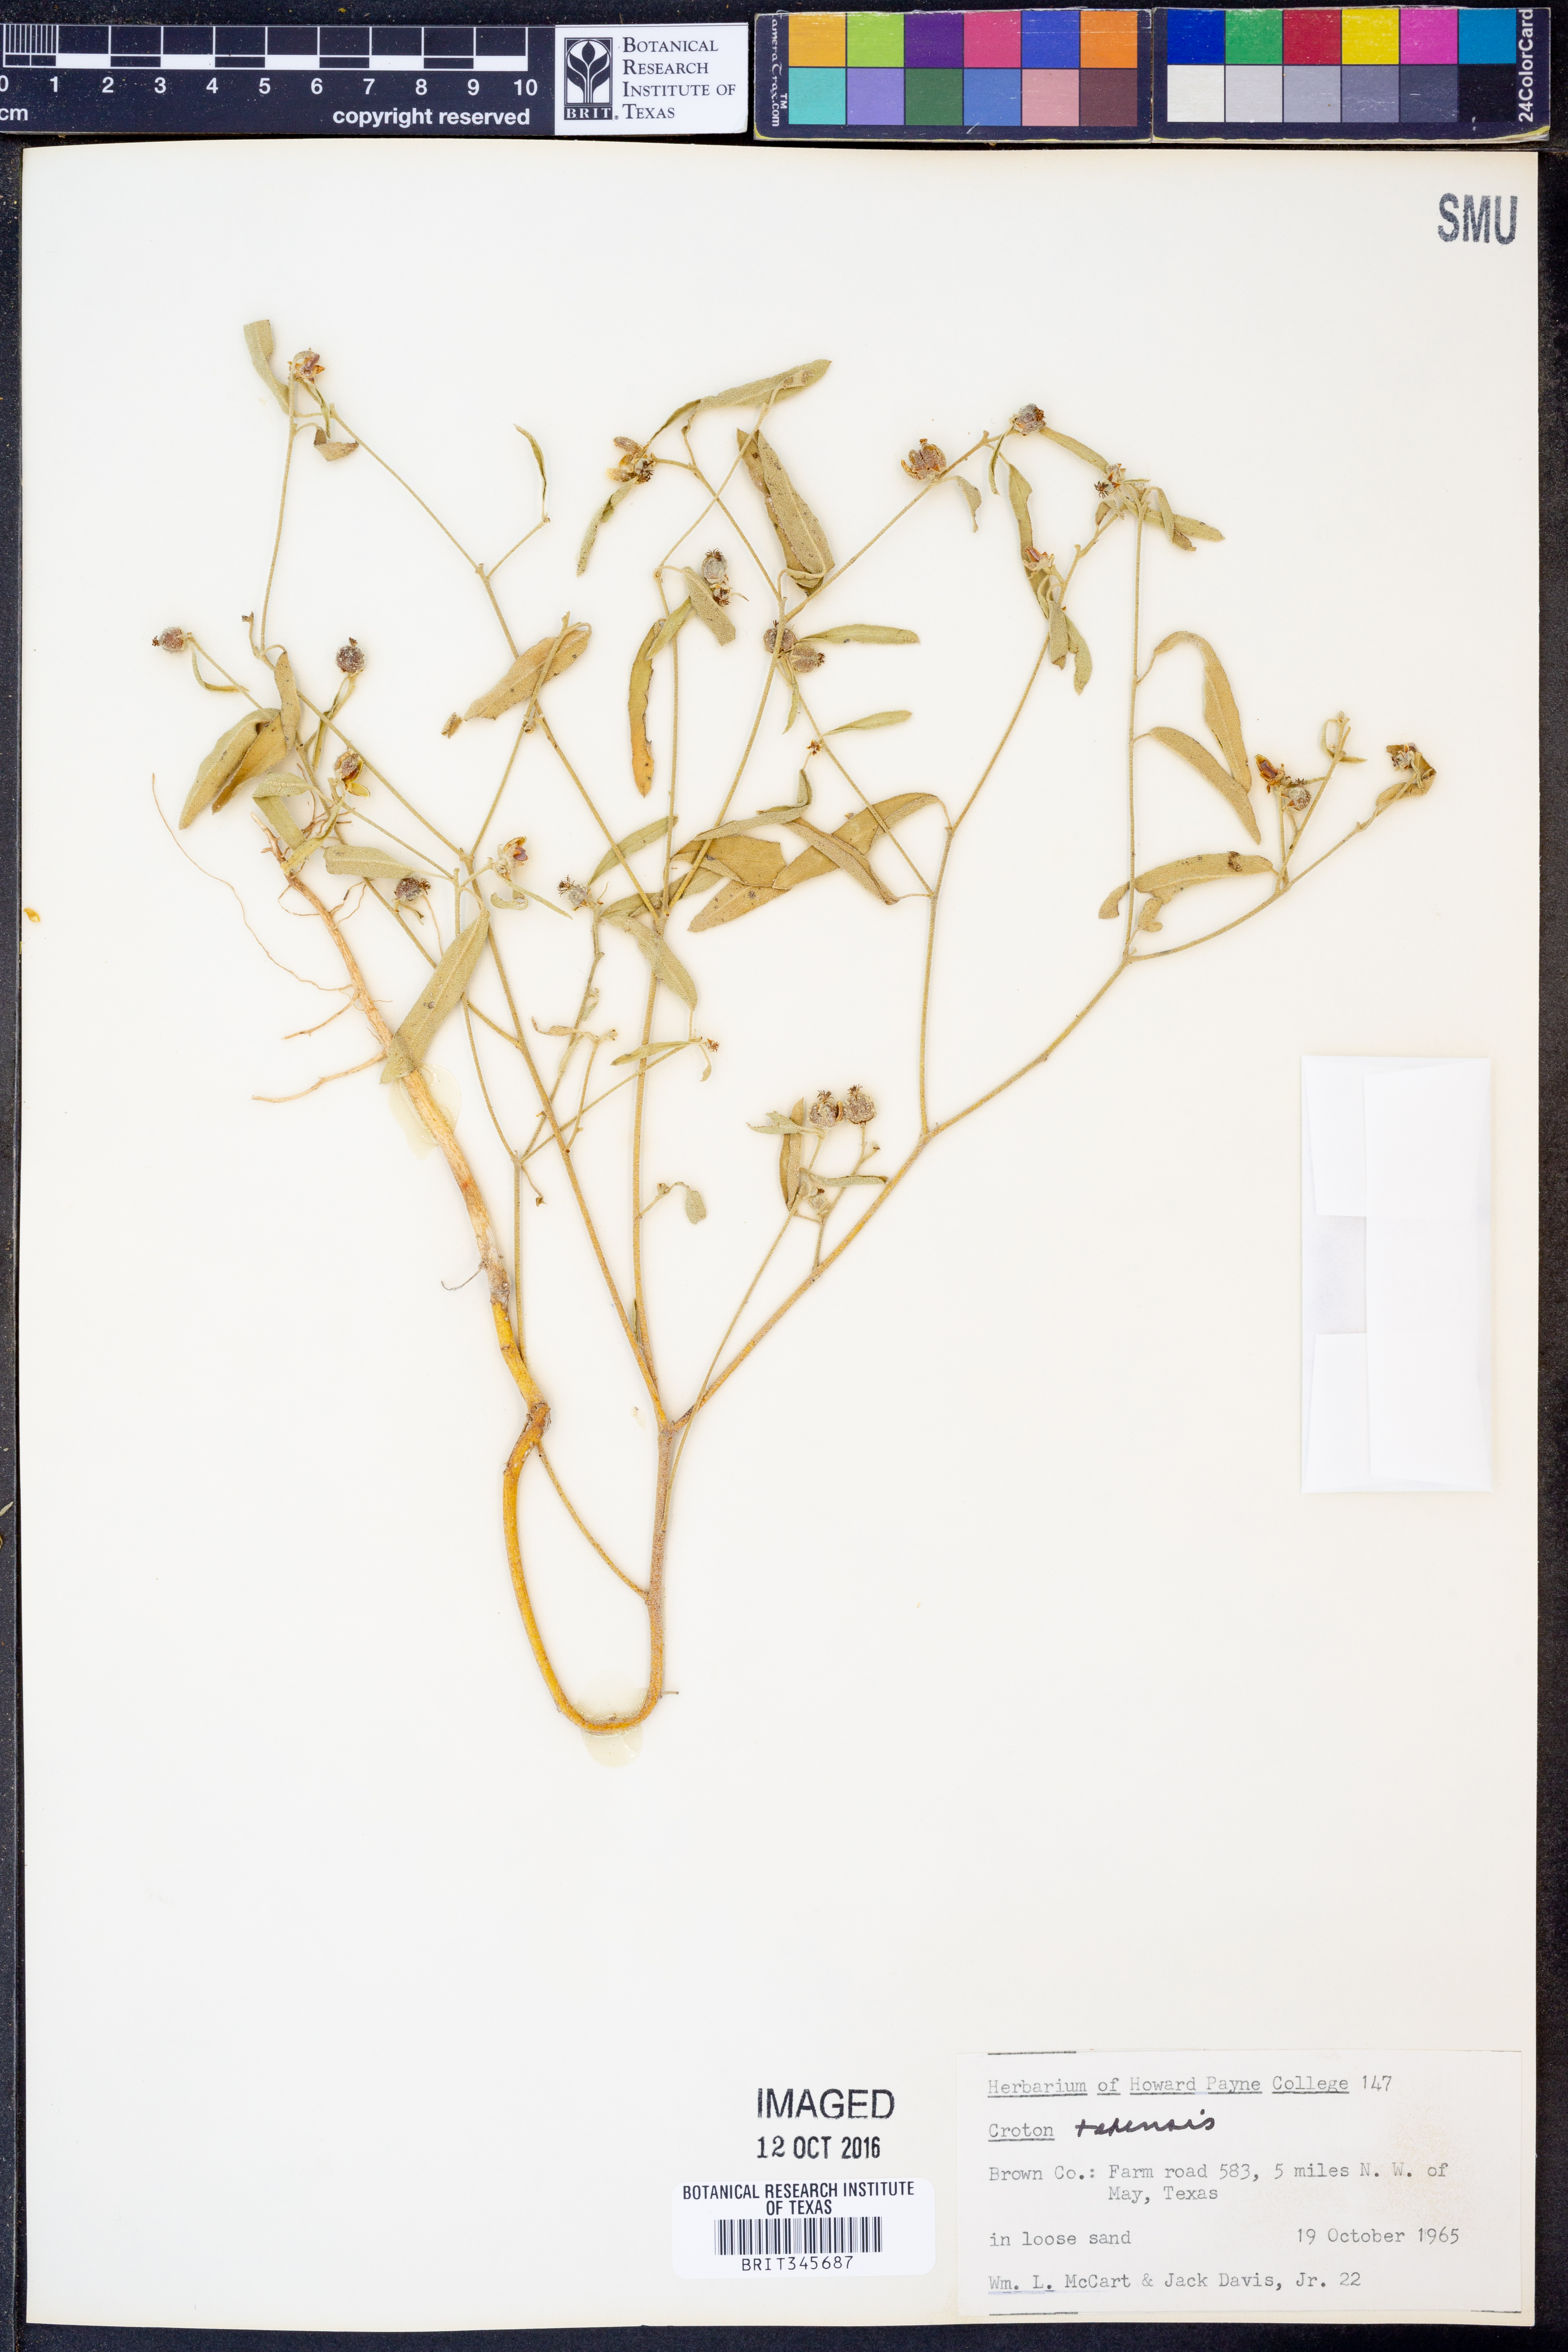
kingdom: Plantae
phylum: Tracheophyta
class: Magnoliopsida
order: Malpighiales
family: Euphorbiaceae
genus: Croton
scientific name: Croton texensis
